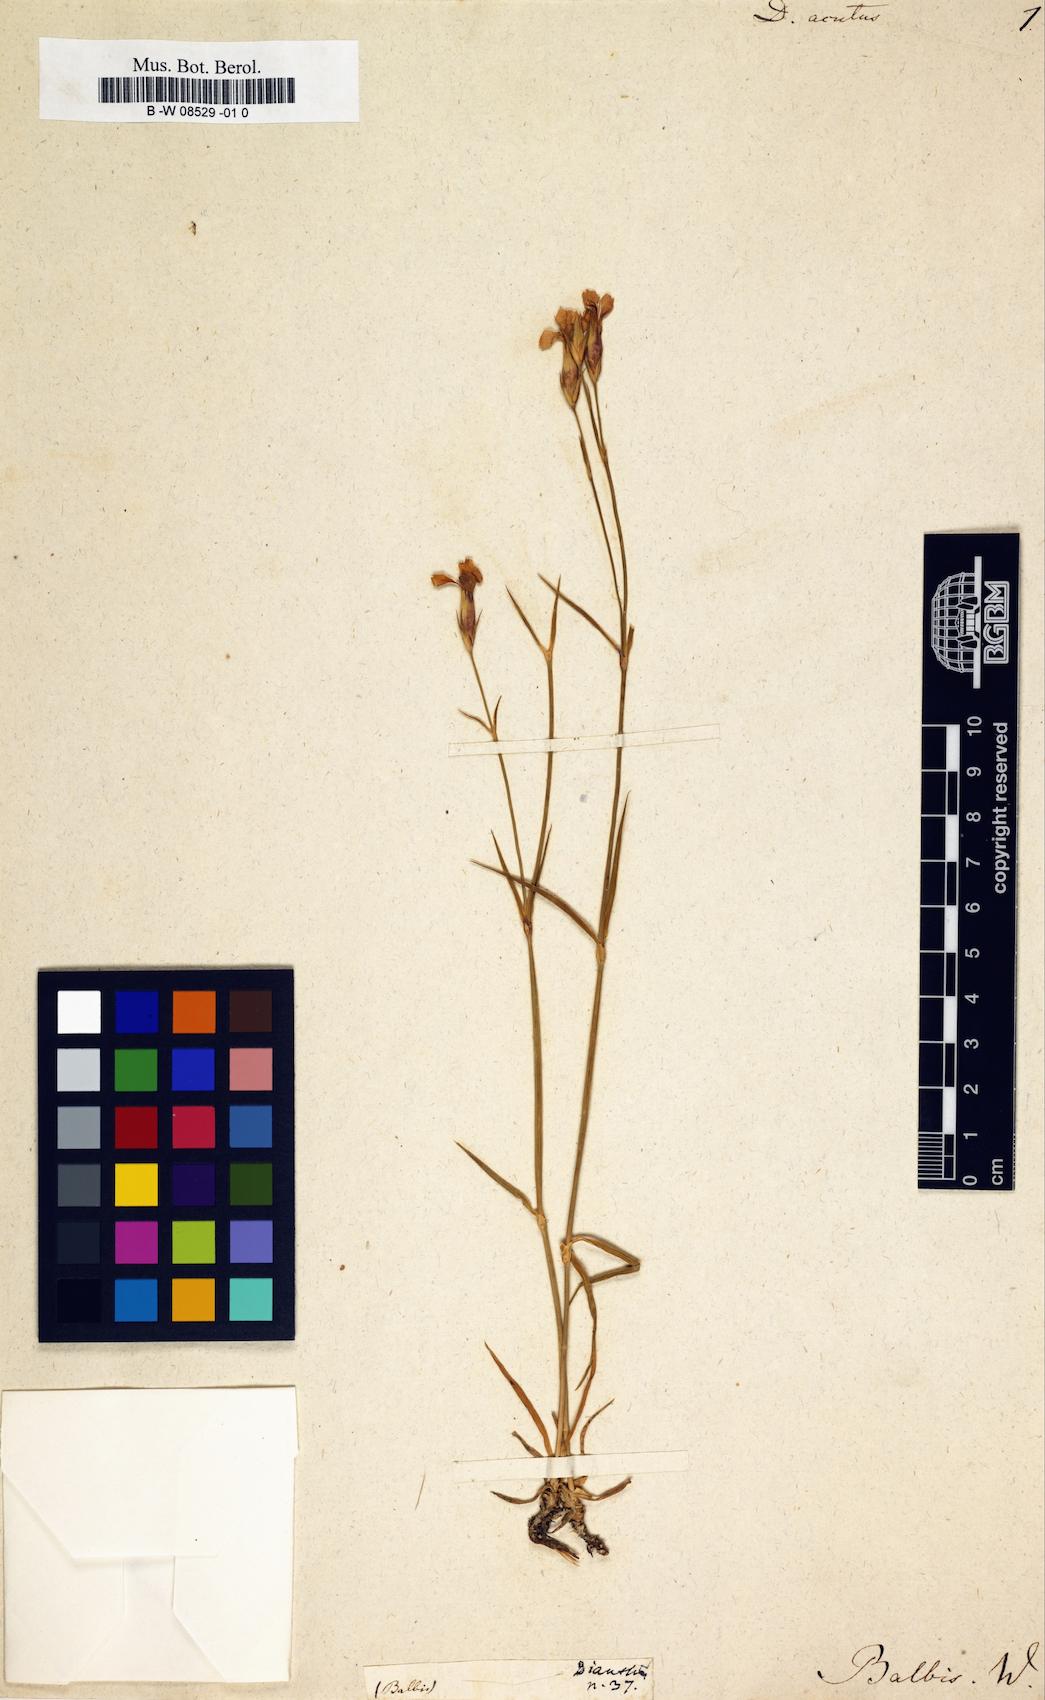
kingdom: Plantae
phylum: Tracheophyta
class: Magnoliopsida
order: Caryophyllales
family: Caryophyllaceae
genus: Dianthus
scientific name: Dianthus
